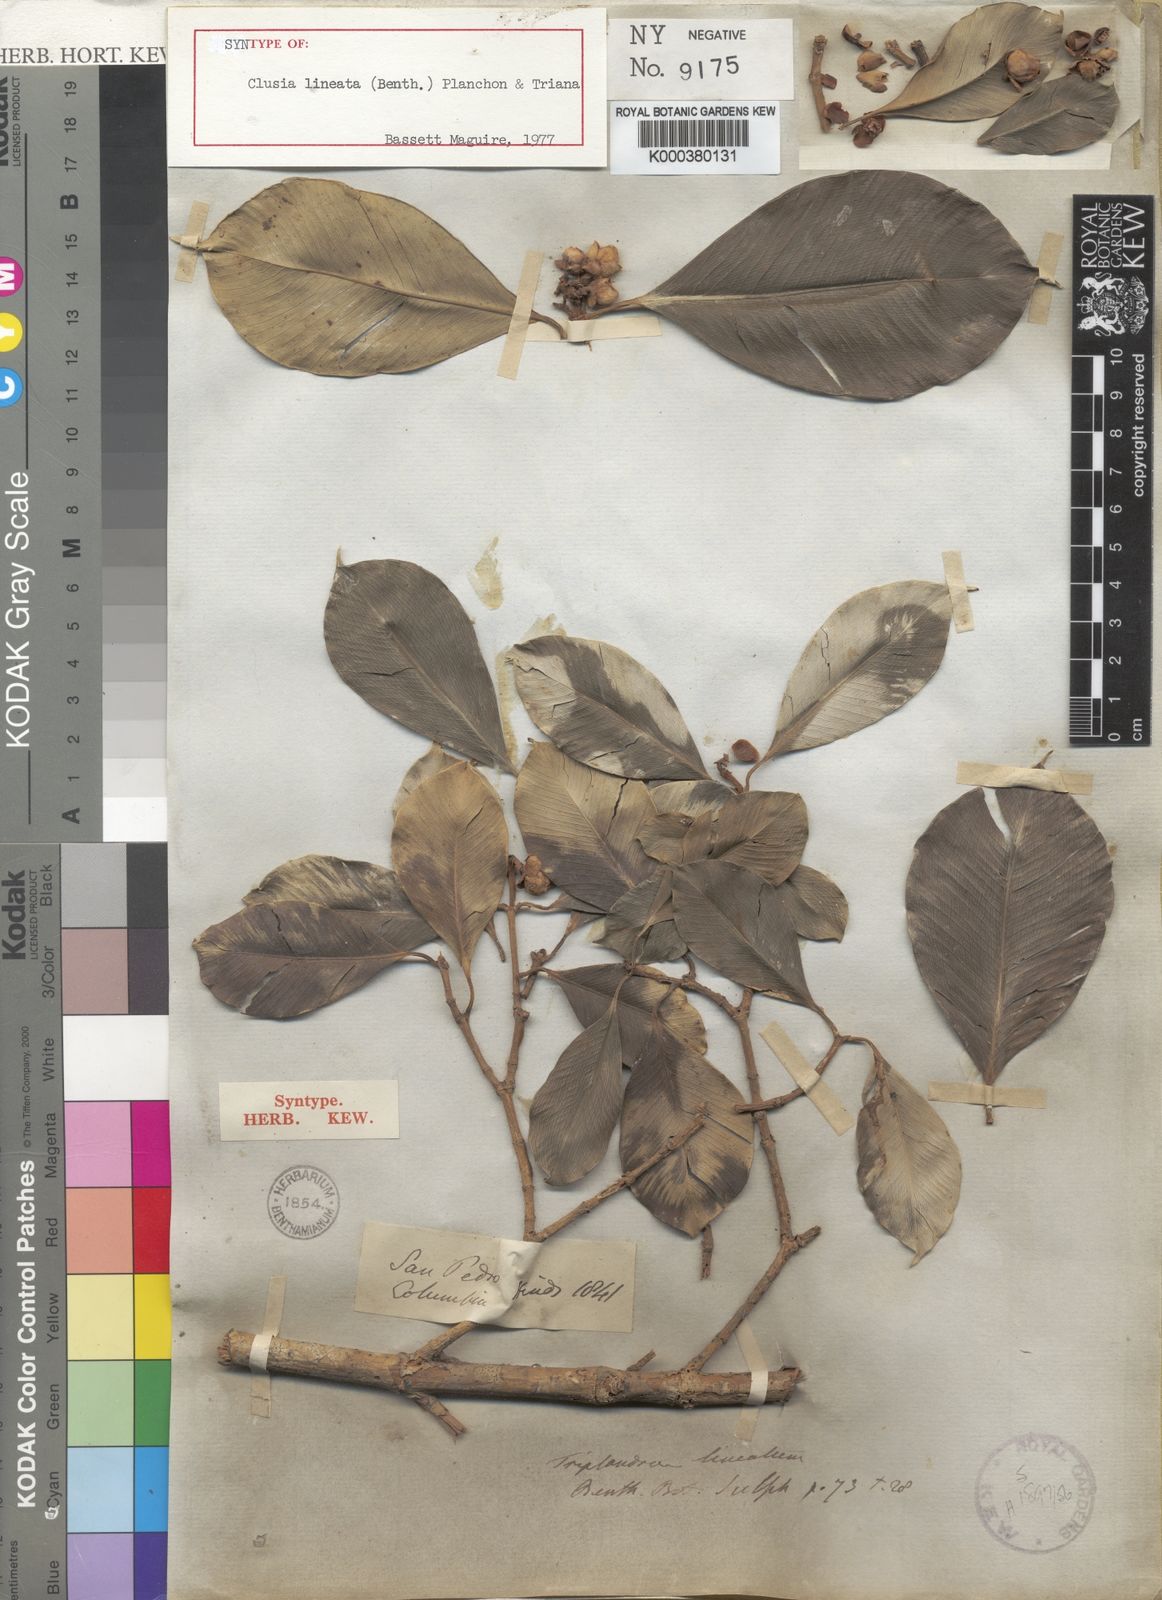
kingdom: Plantae
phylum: Tracheophyta
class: Magnoliopsida
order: Malpighiales
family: Clusiaceae
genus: Clusia
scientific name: Clusia lineata
